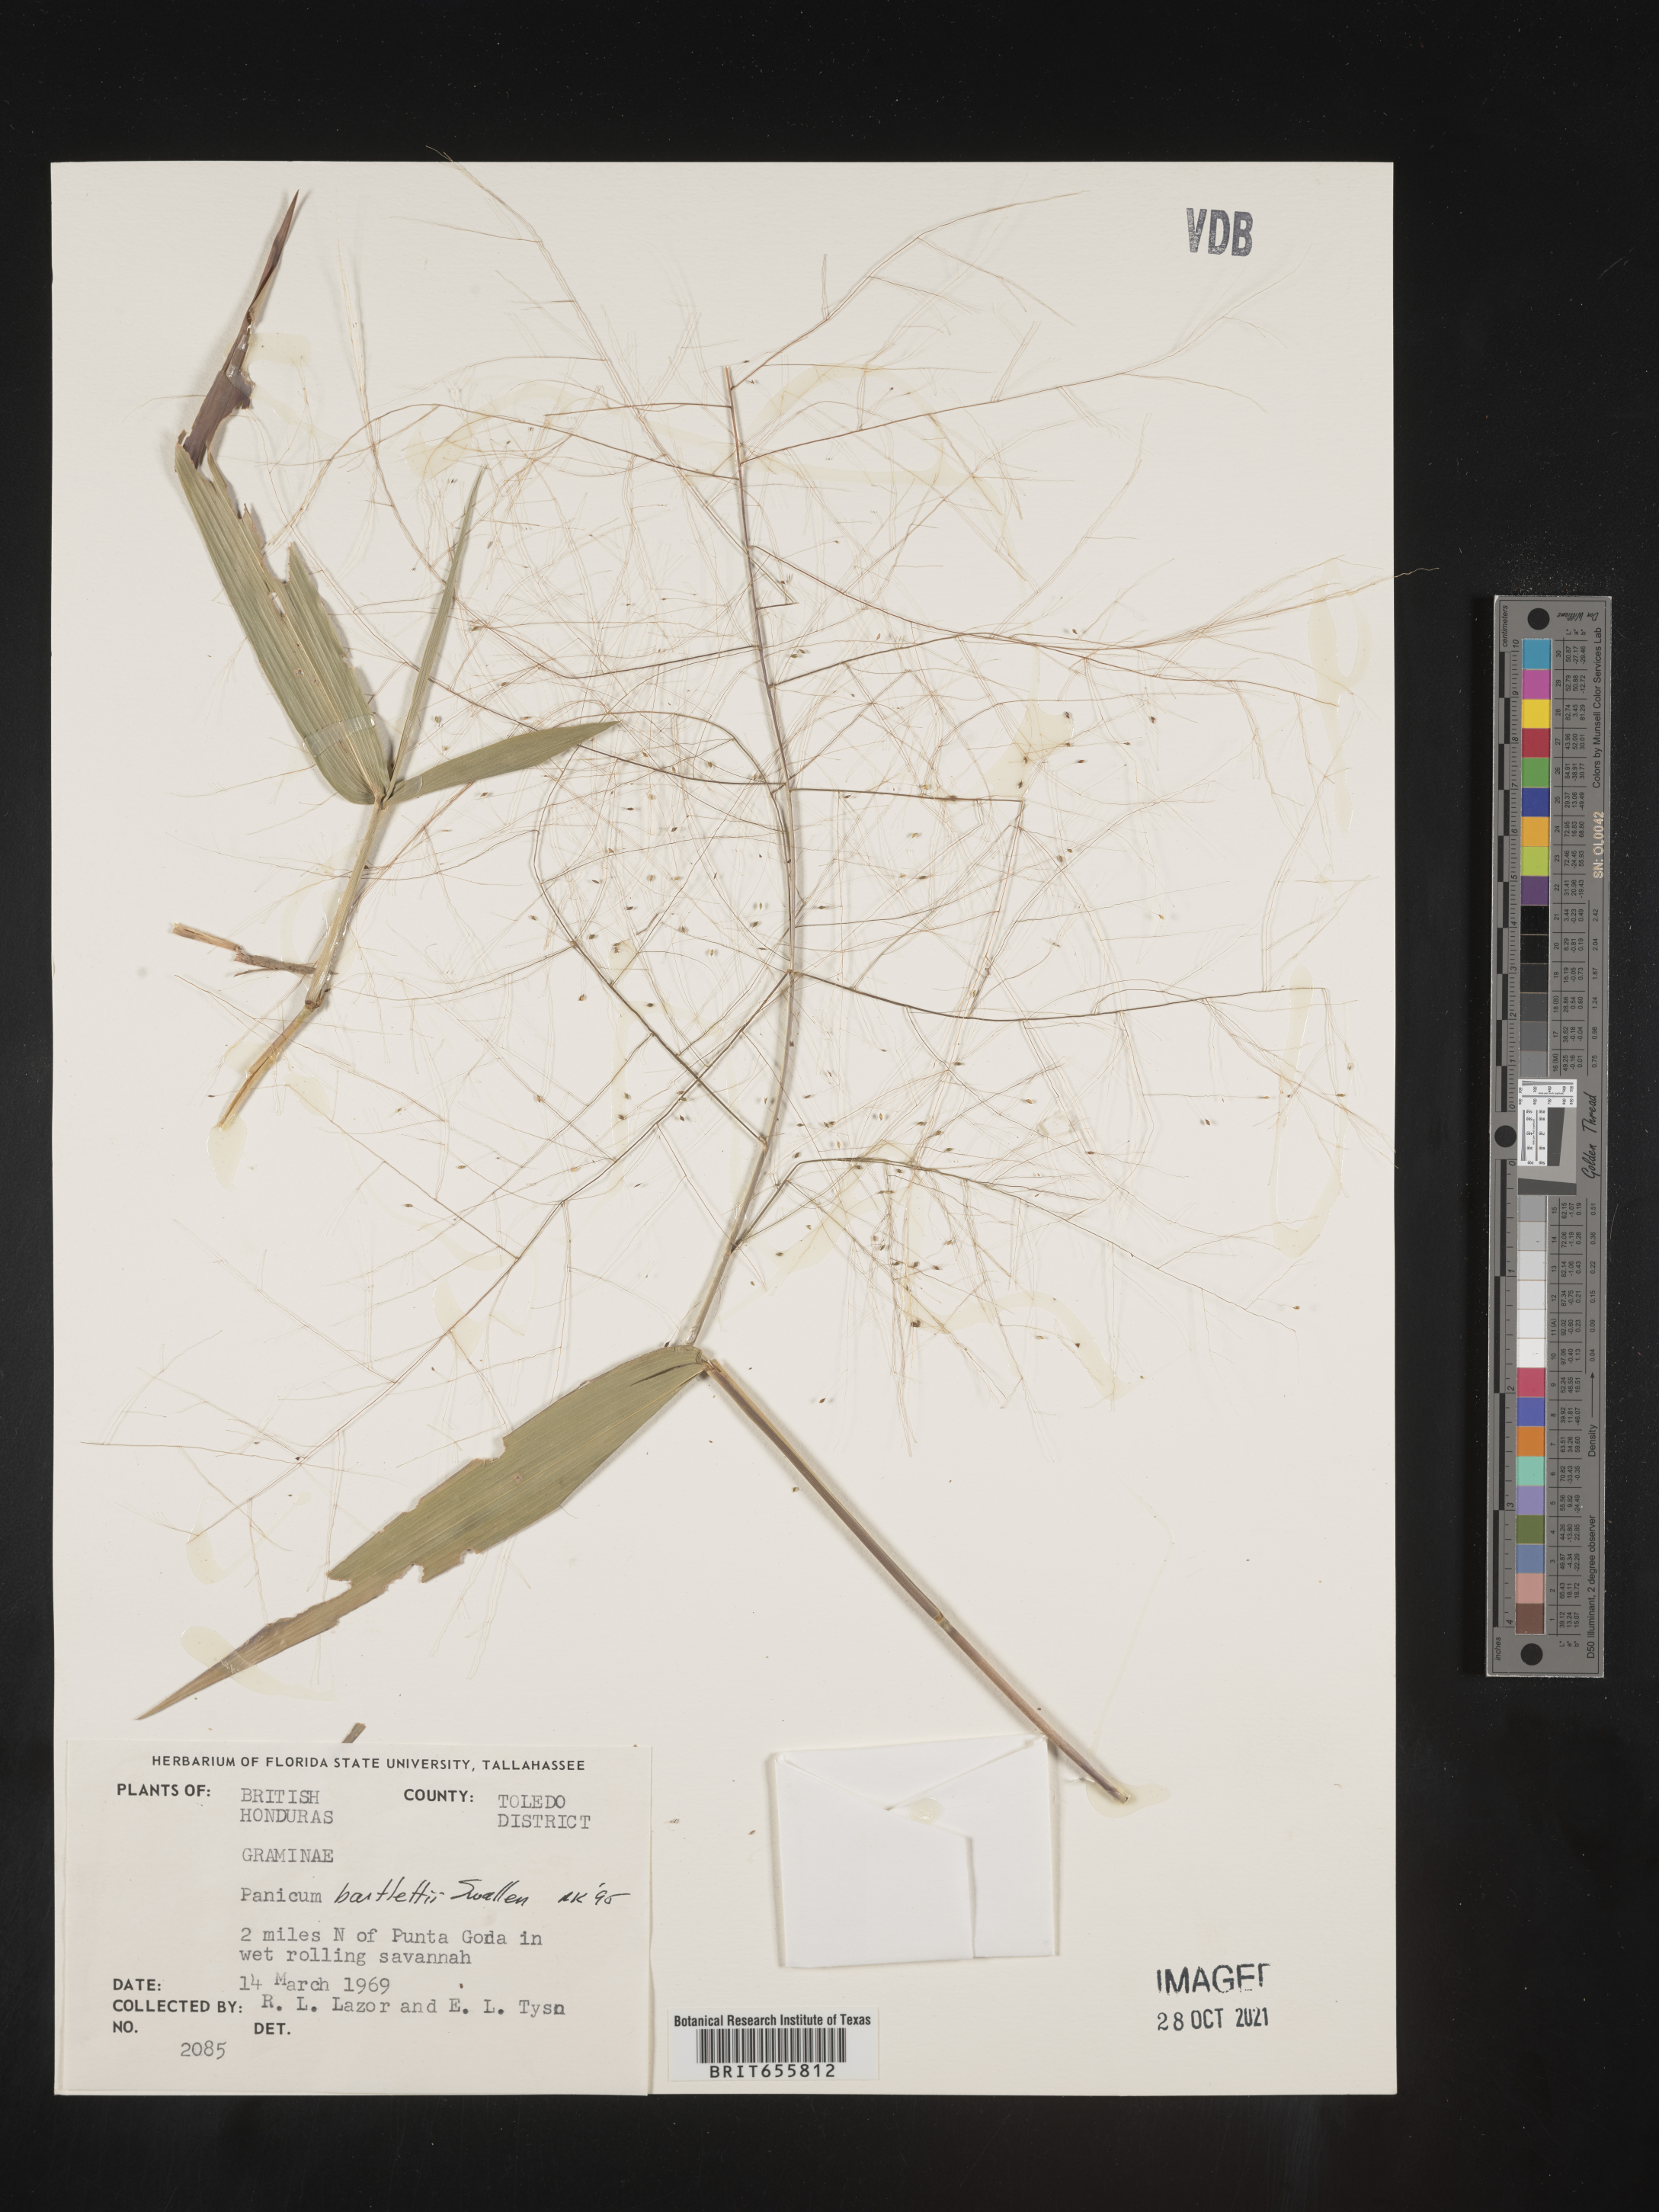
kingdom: Plantae
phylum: Tracheophyta
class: Liliopsida
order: Poales
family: Poaceae
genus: Panicum
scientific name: Panicum
